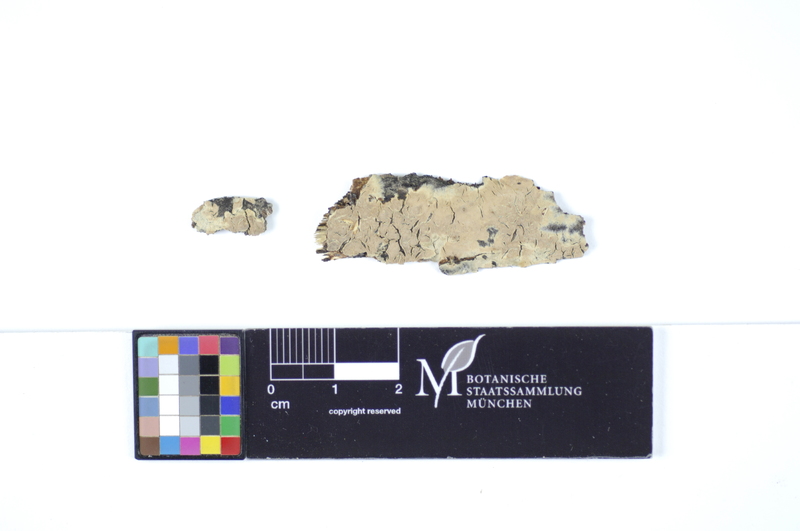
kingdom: Plantae
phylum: Tracheophyta
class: Magnoliopsida
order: Sapindales
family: Sapindaceae
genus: Acer
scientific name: Acer
